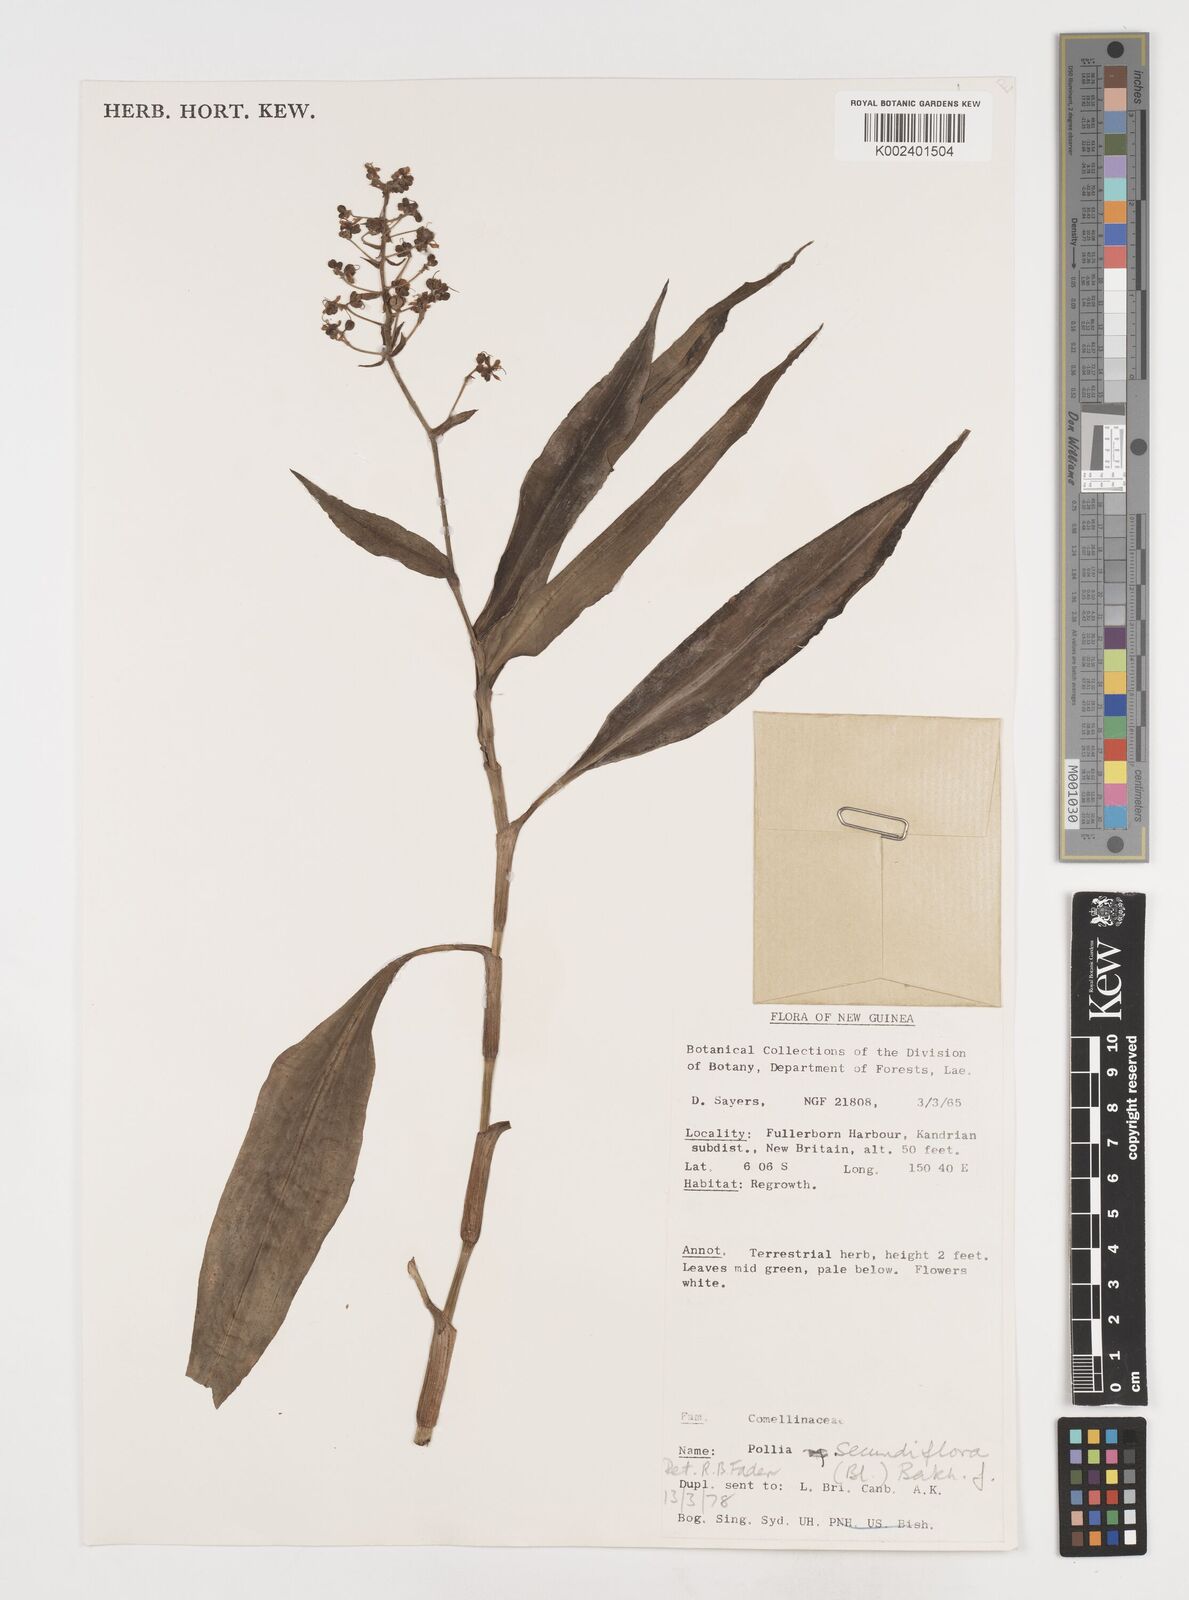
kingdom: Plantae
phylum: Tracheophyta
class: Liliopsida
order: Commelinales
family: Commelinaceae
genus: Pollia
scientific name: Pollia secundiflora
